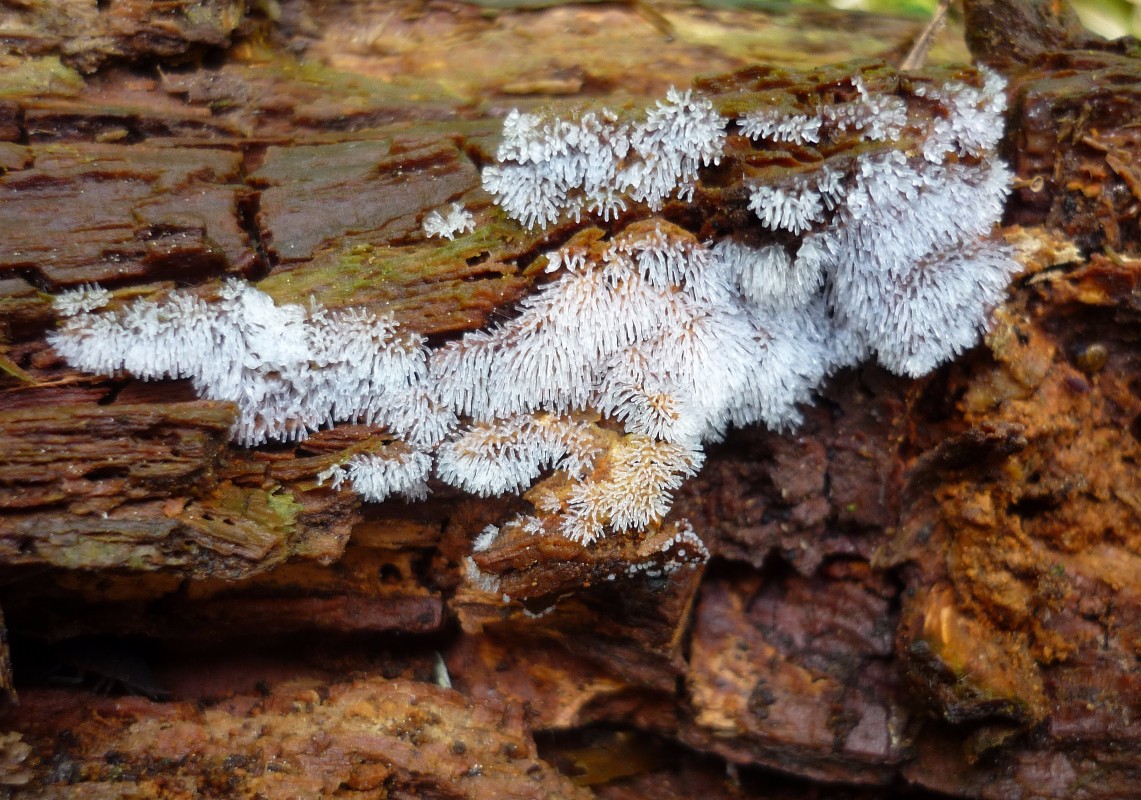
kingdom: Protozoa
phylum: Mycetozoa
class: Protosteliomycetes
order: Ceratiomyxales
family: Ceratiomyxaceae
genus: Ceratiomyxa
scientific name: Ceratiomyxa fruticulosa
